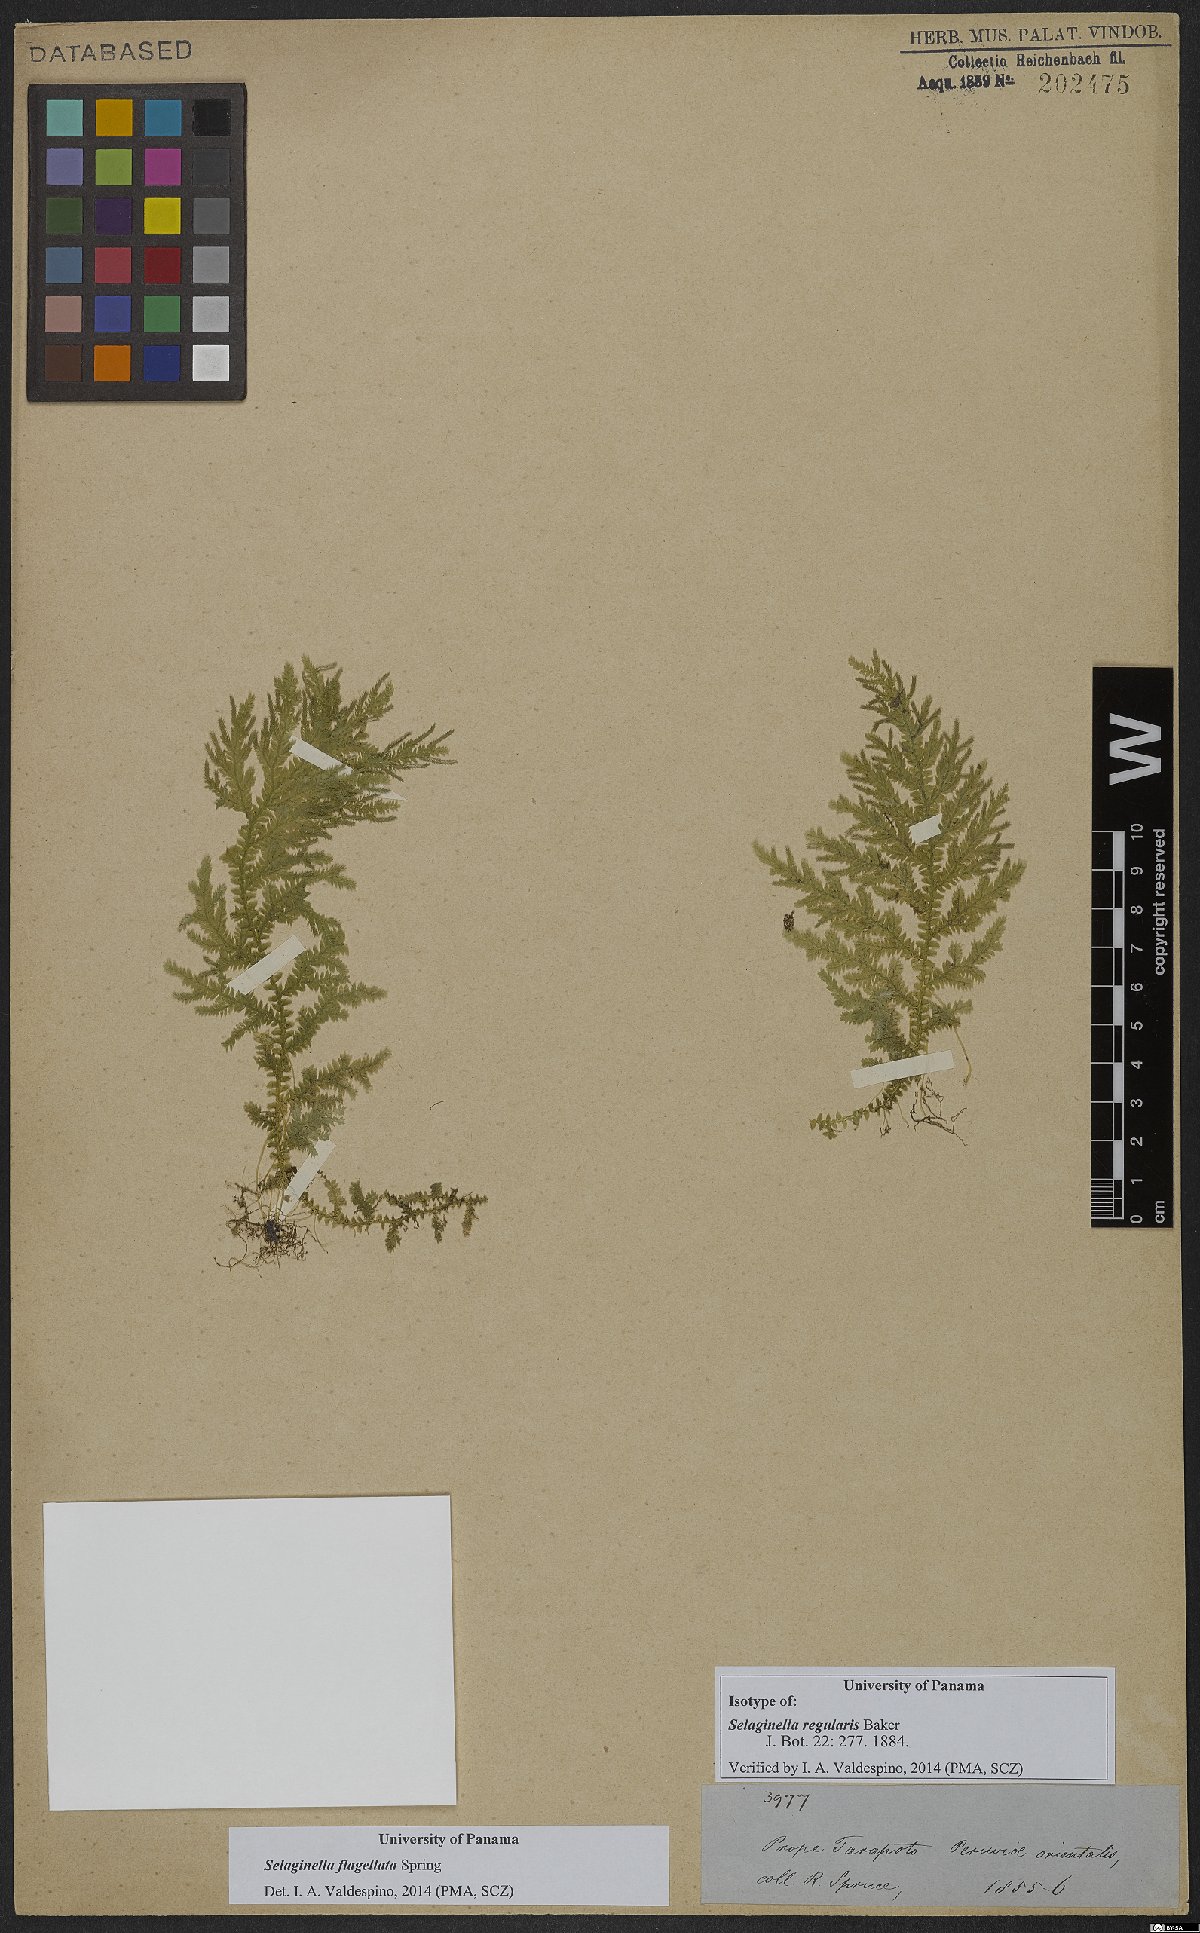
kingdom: Plantae
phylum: Tracheophyta
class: Lycopodiopsida
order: Selaginellales
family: Selaginellaceae
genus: Selaginella
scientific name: Selaginella flagellata
